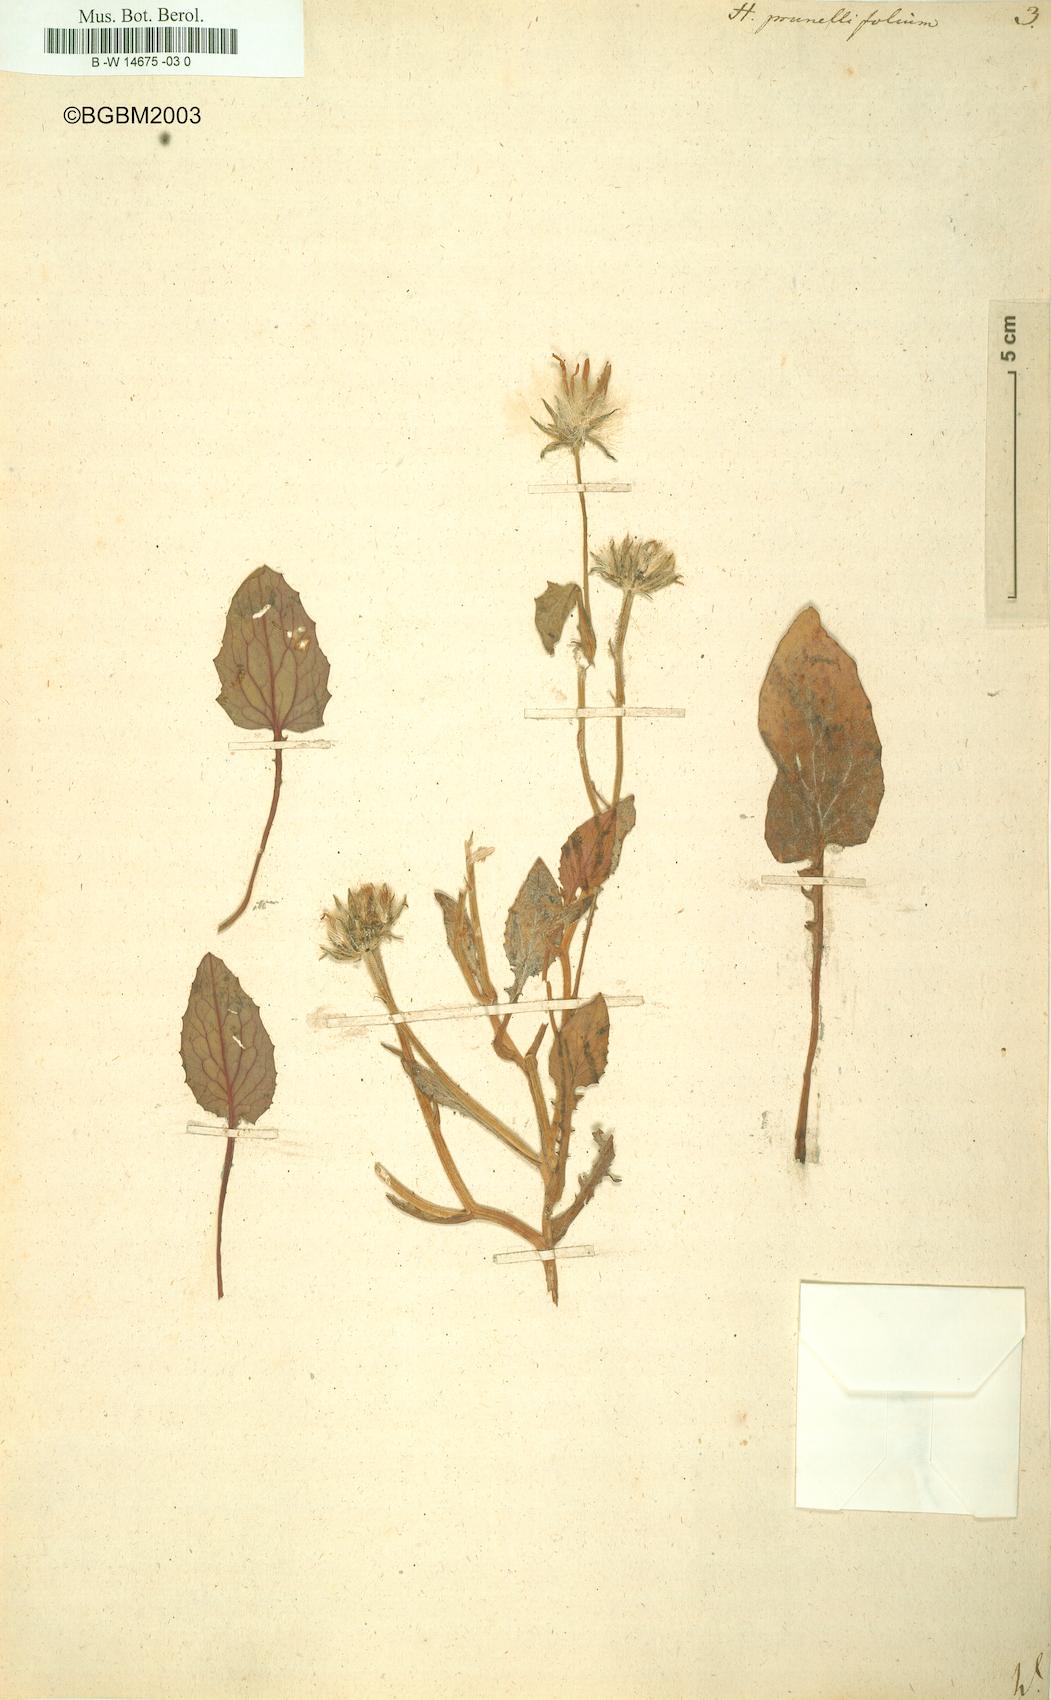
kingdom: Plantae
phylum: Tracheophyta
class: Magnoliopsida
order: Asterales
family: Asteraceae
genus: Crepis
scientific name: Crepis pygmaea
